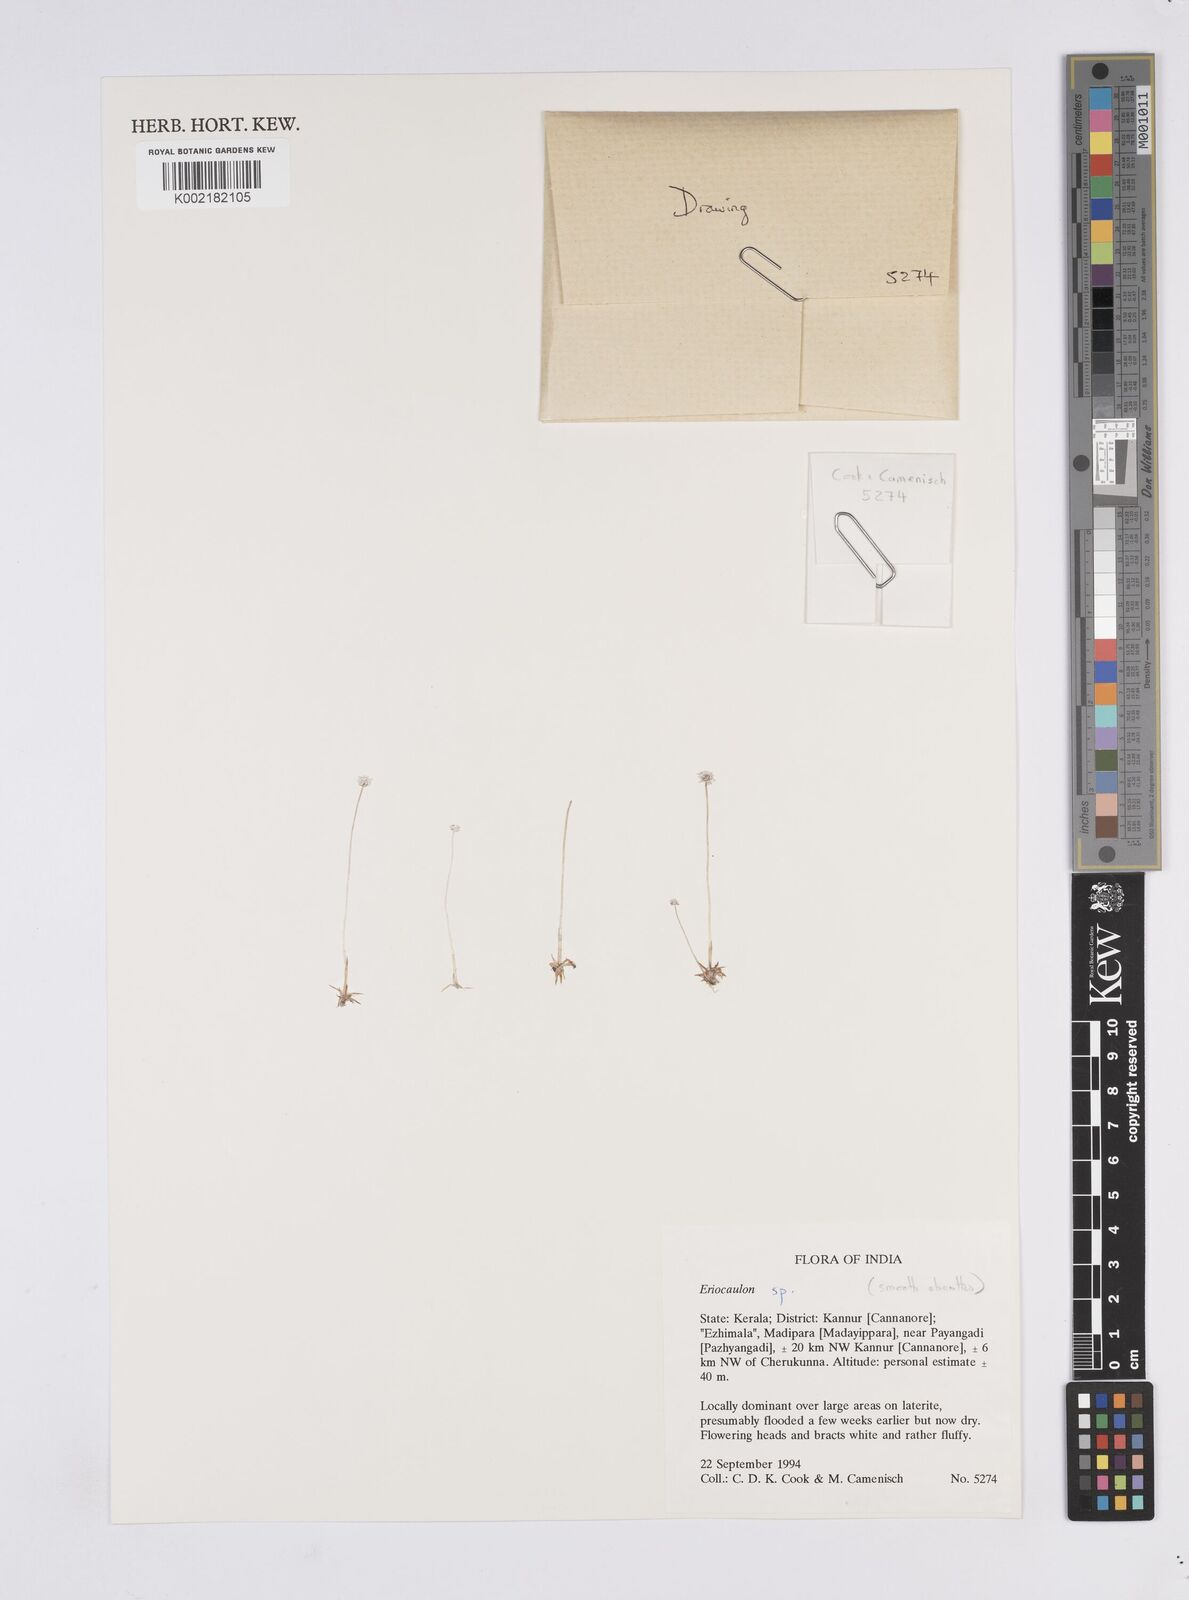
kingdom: Plantae
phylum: Tracheophyta
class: Liliopsida
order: Poales
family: Eriocaulaceae
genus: Eriocaulon
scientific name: Eriocaulon
